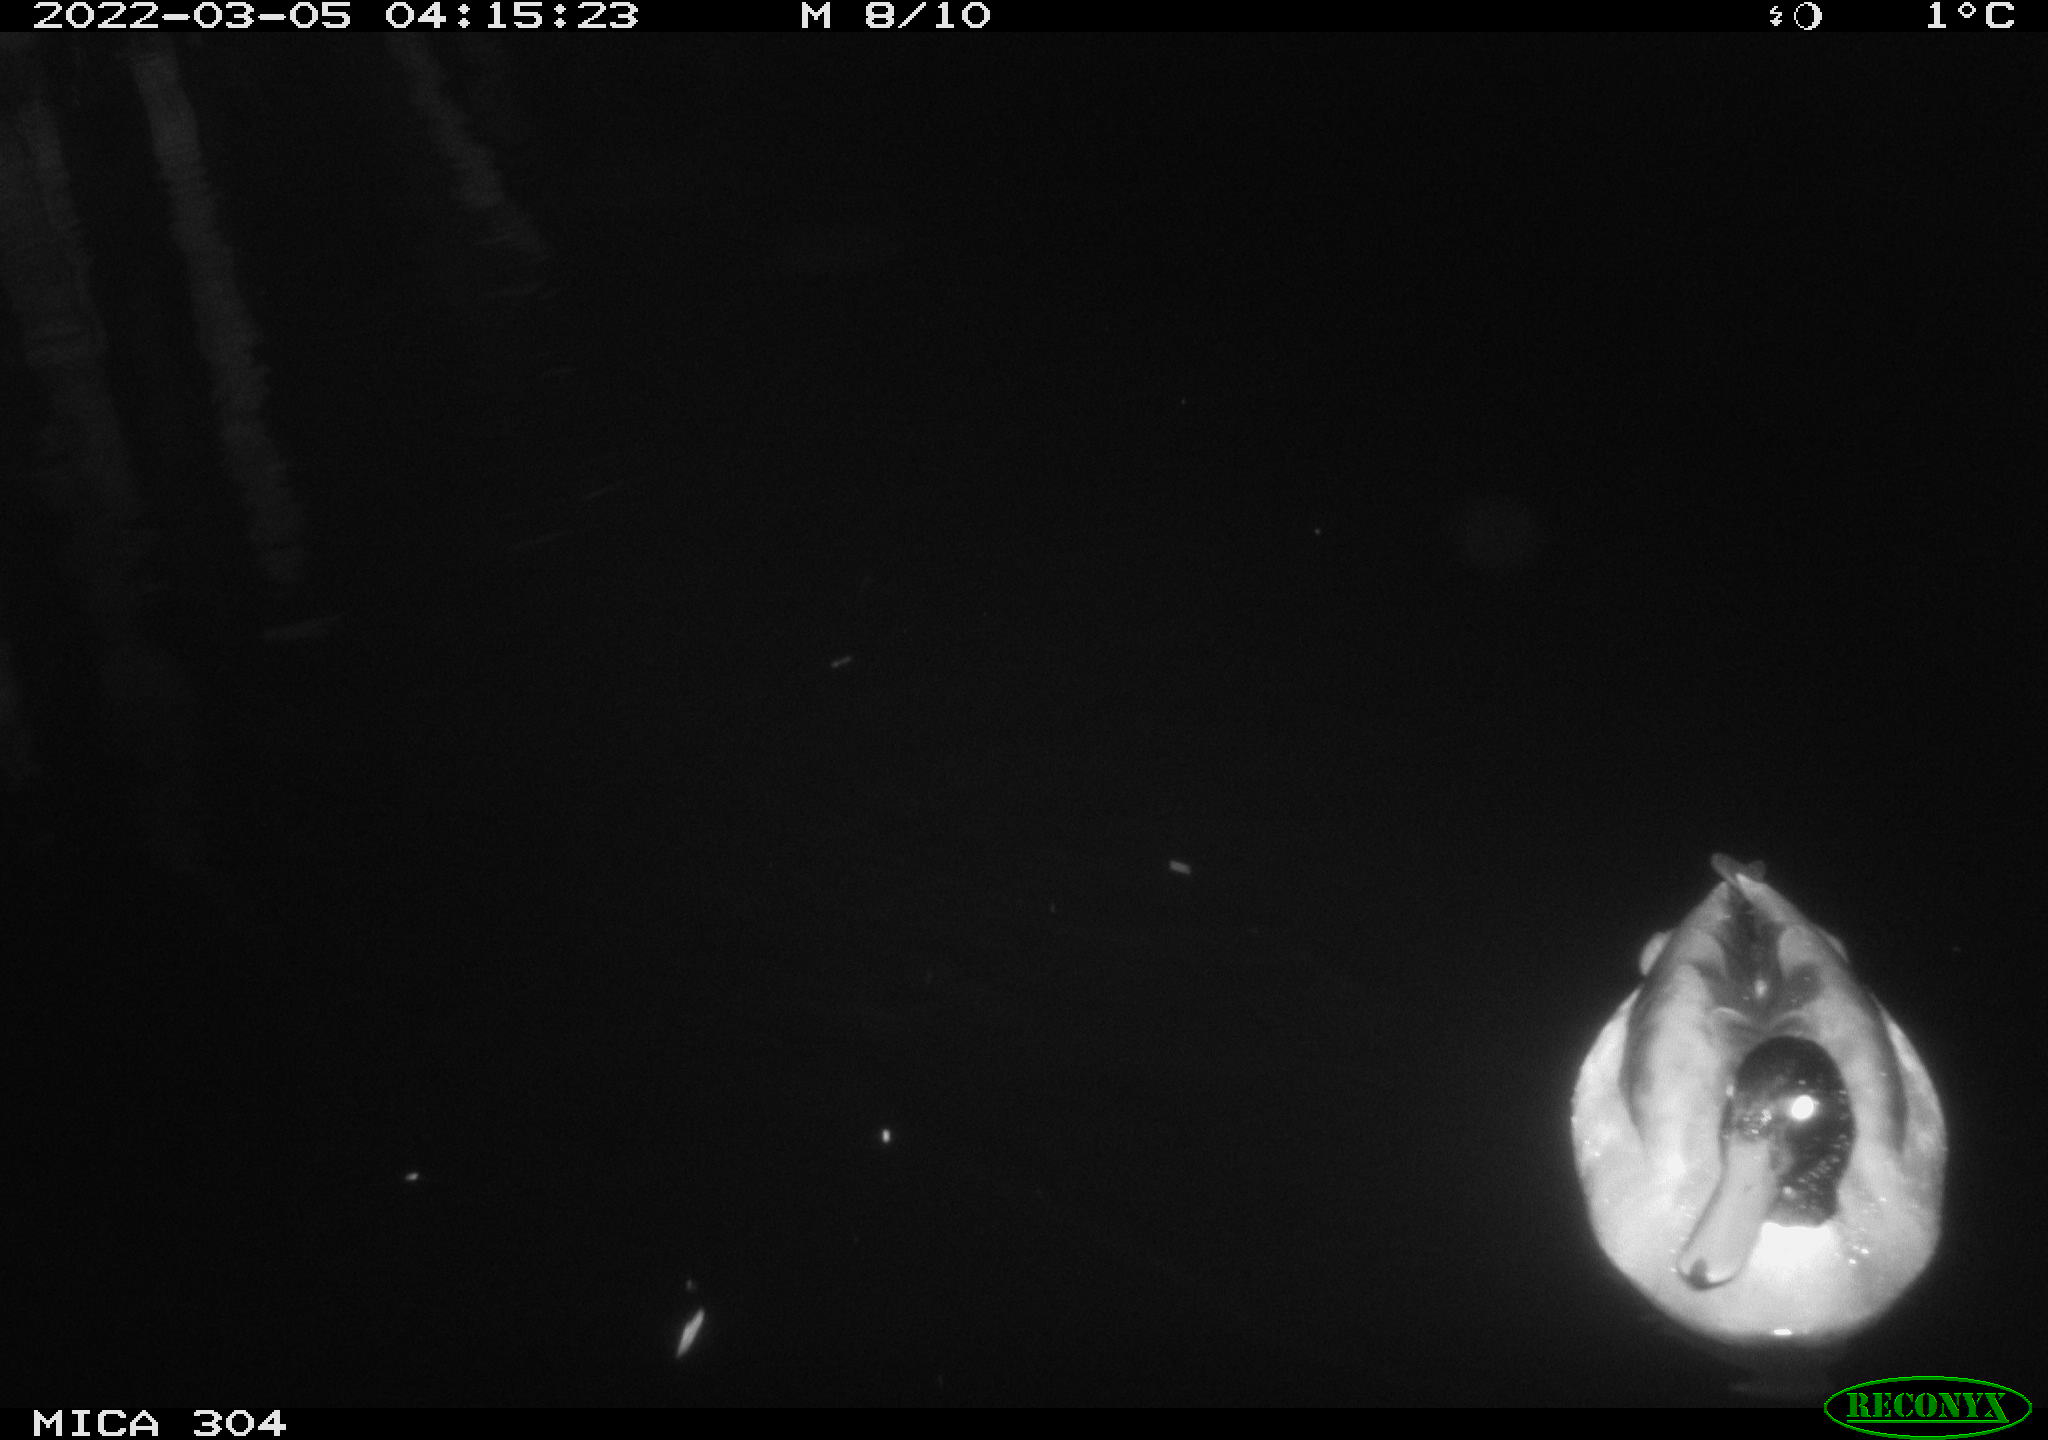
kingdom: Animalia
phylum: Chordata
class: Aves
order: Anseriformes
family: Anatidae
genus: Anas
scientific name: Anas platyrhynchos
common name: Mallard
